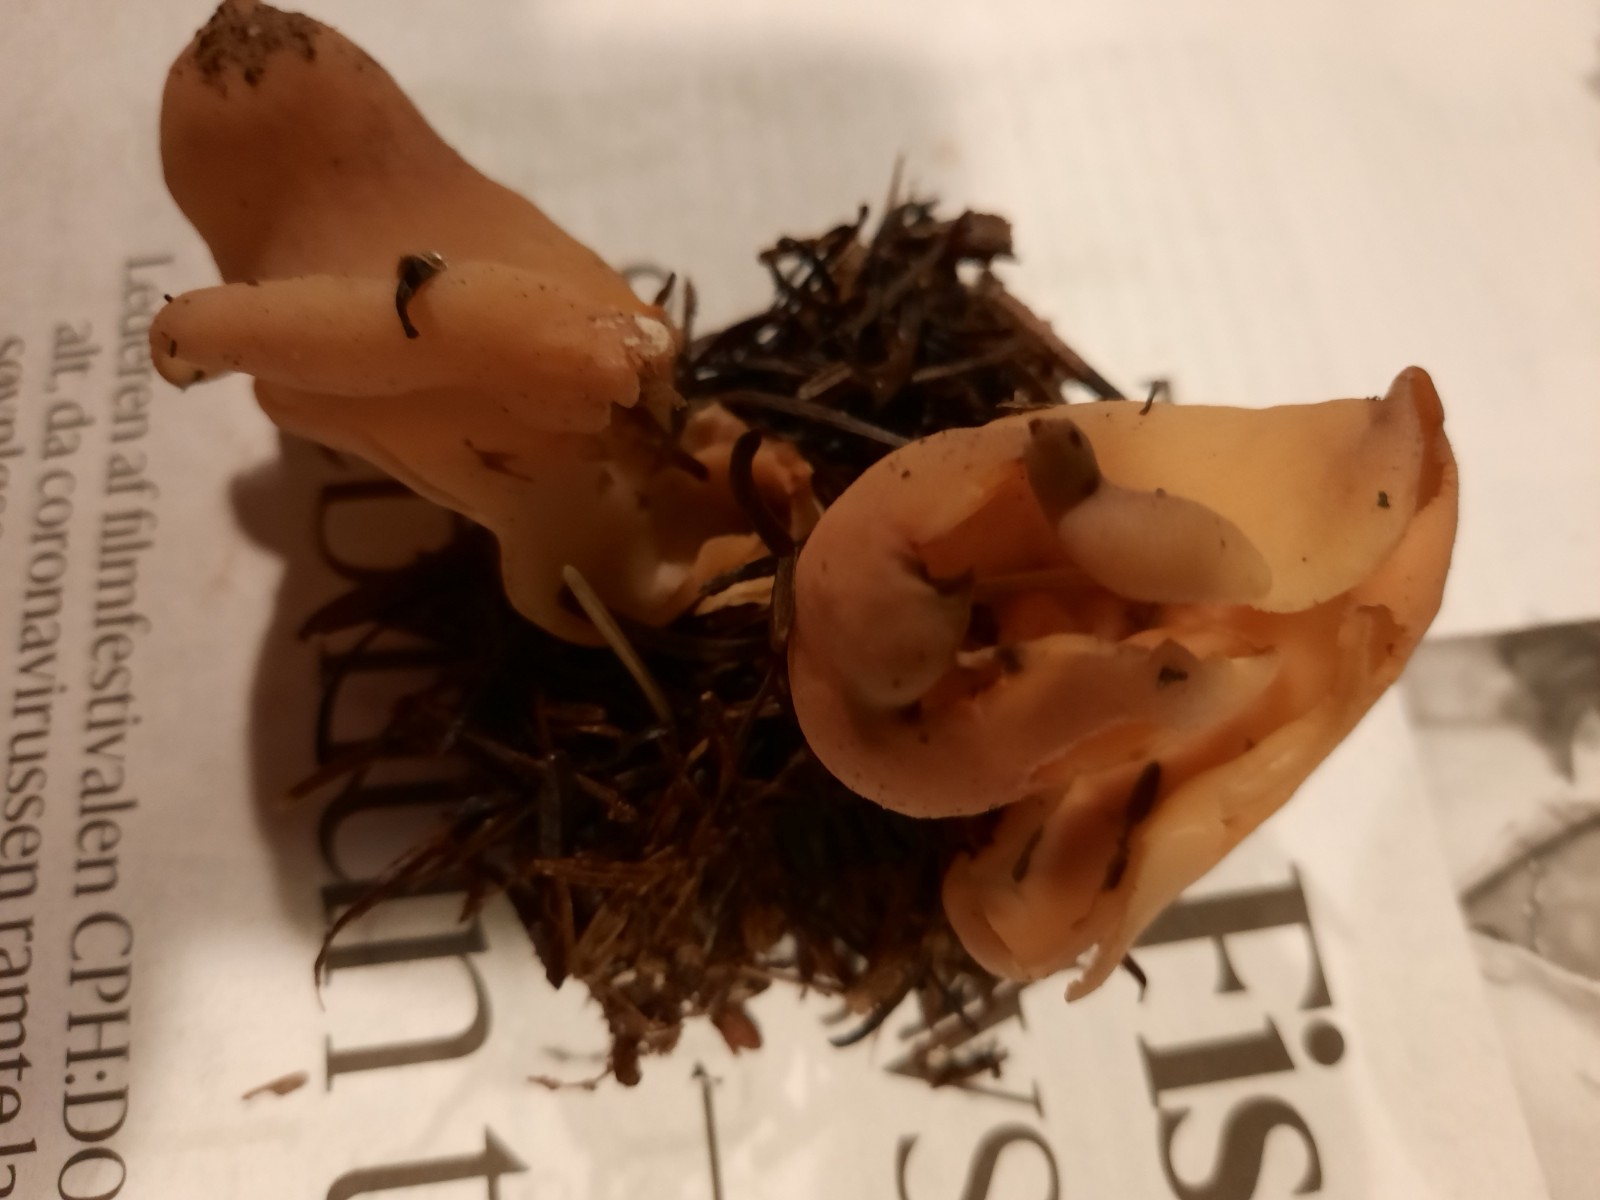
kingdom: Fungi
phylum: Ascomycota
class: Pezizomycetes
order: Pezizales
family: Otideaceae
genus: Otidea
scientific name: Otidea onotica
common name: æsel-ørebæger
